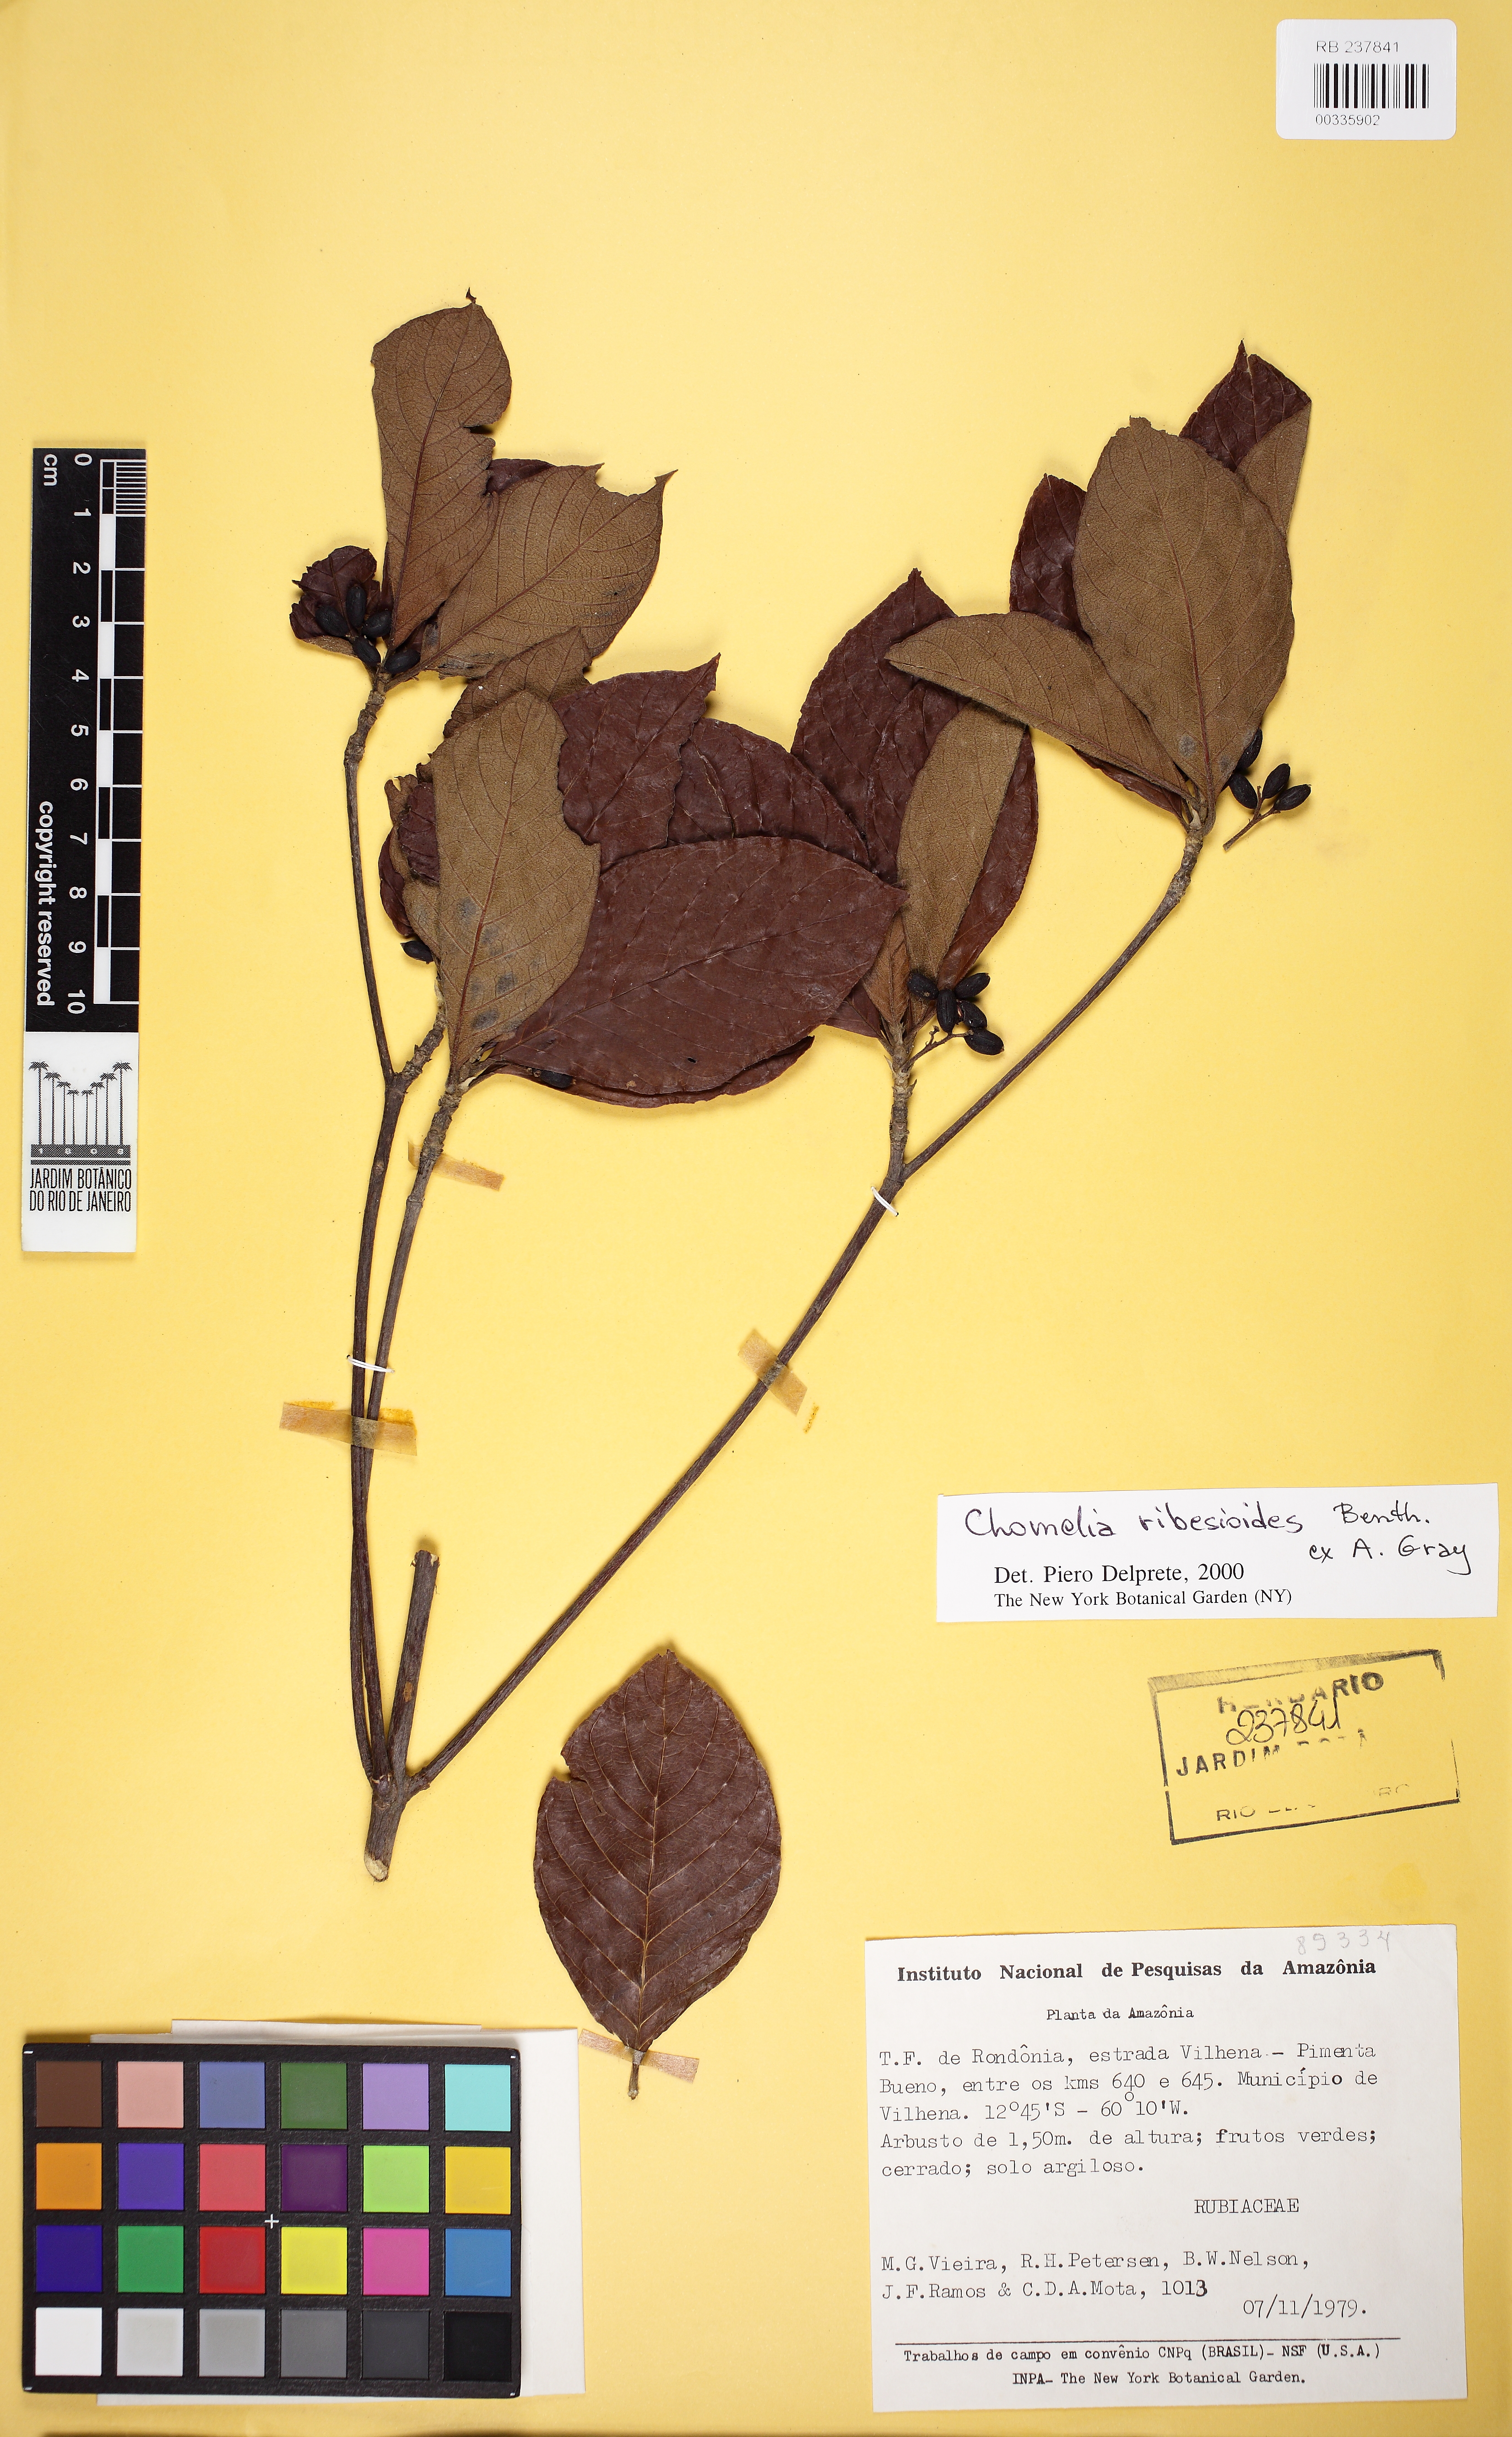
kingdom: Plantae
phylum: Tracheophyta
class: Magnoliopsida
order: Gentianales
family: Rubiaceae
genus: Chomelia
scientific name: Chomelia ribesioides
